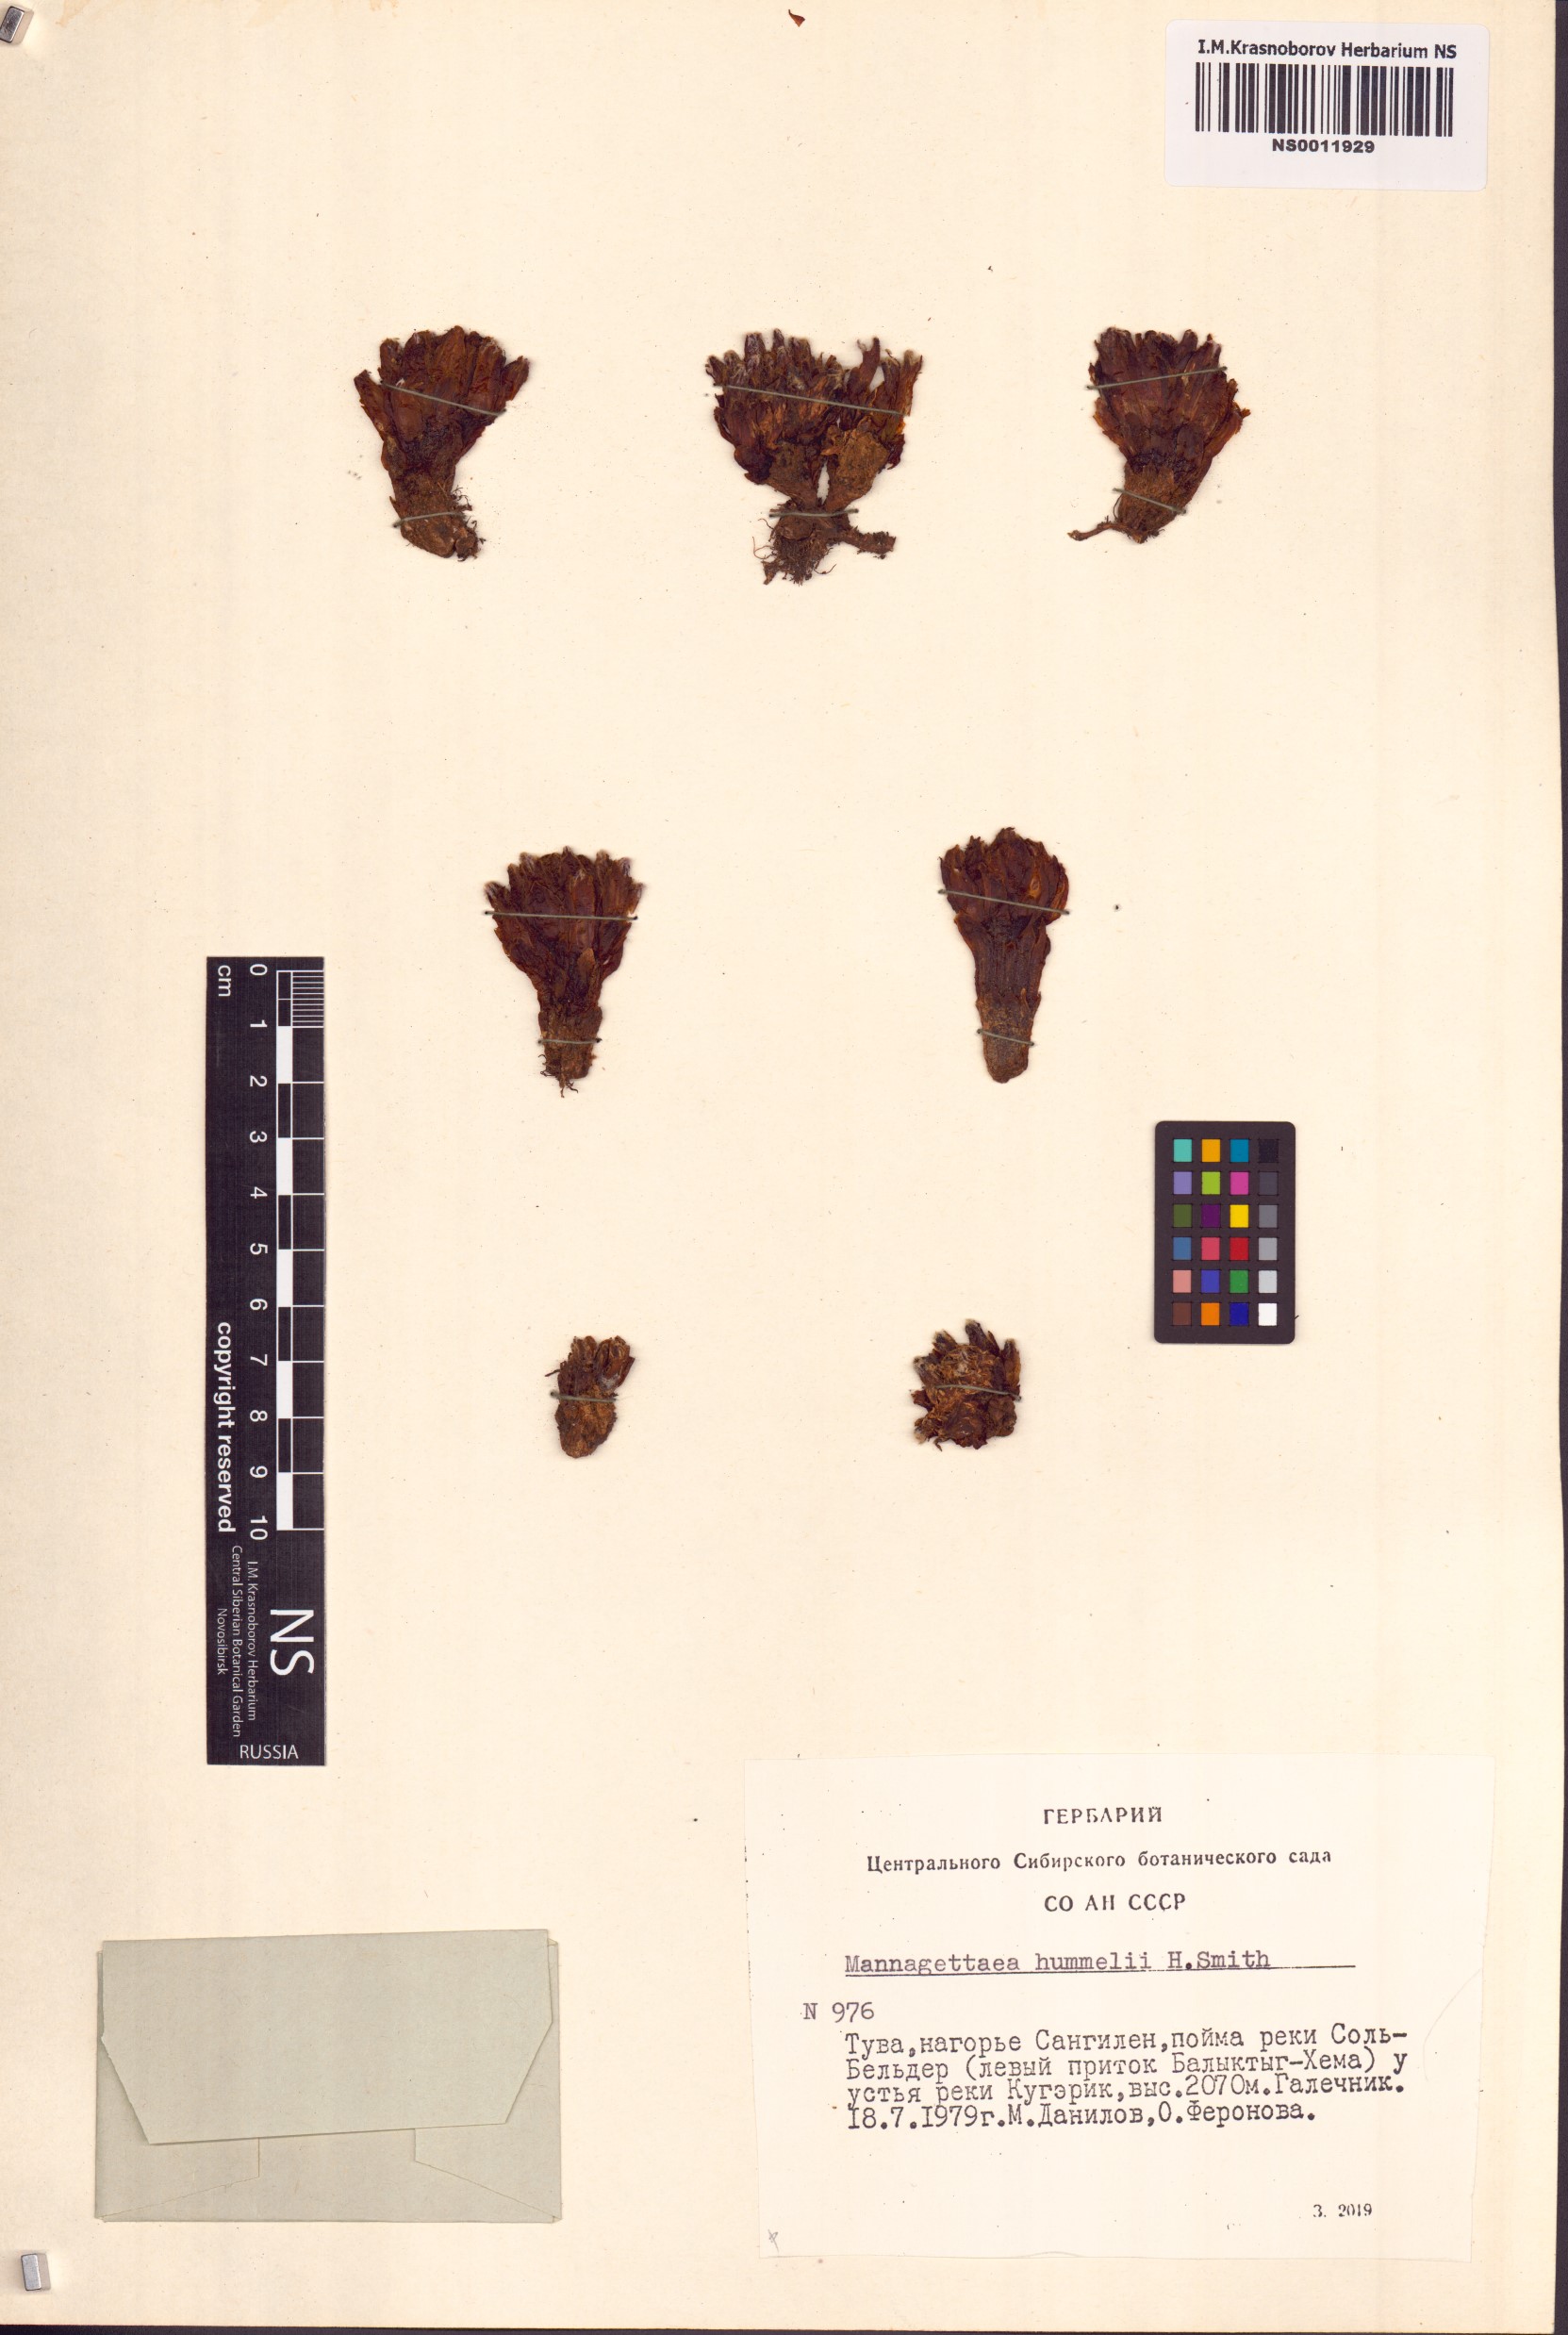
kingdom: Plantae
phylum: Tracheophyta
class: Magnoliopsida
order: Lamiales
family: Orobanchaceae
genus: Mannagettaea
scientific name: Mannagettaea hummelii
